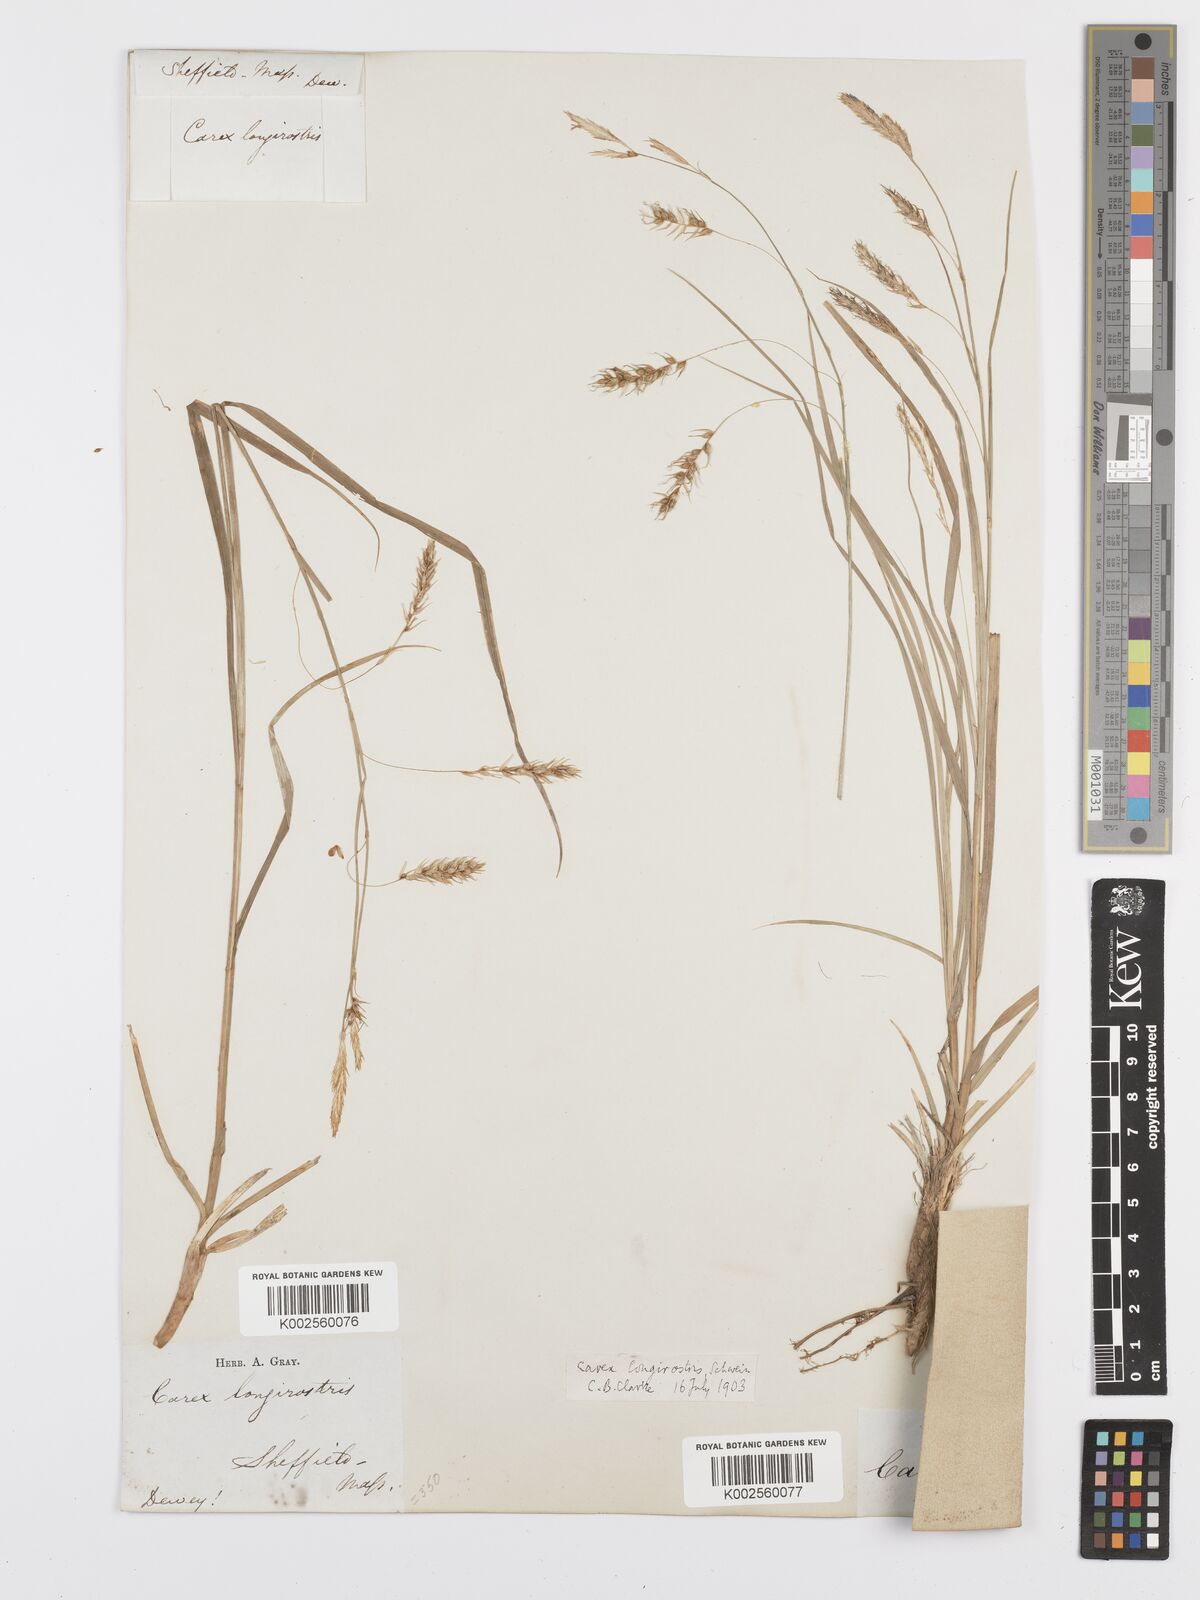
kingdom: Plantae
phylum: Tracheophyta
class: Liliopsida
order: Poales
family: Cyperaceae
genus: Carex
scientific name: Carex sprengelii
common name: Long-beaked sedge
